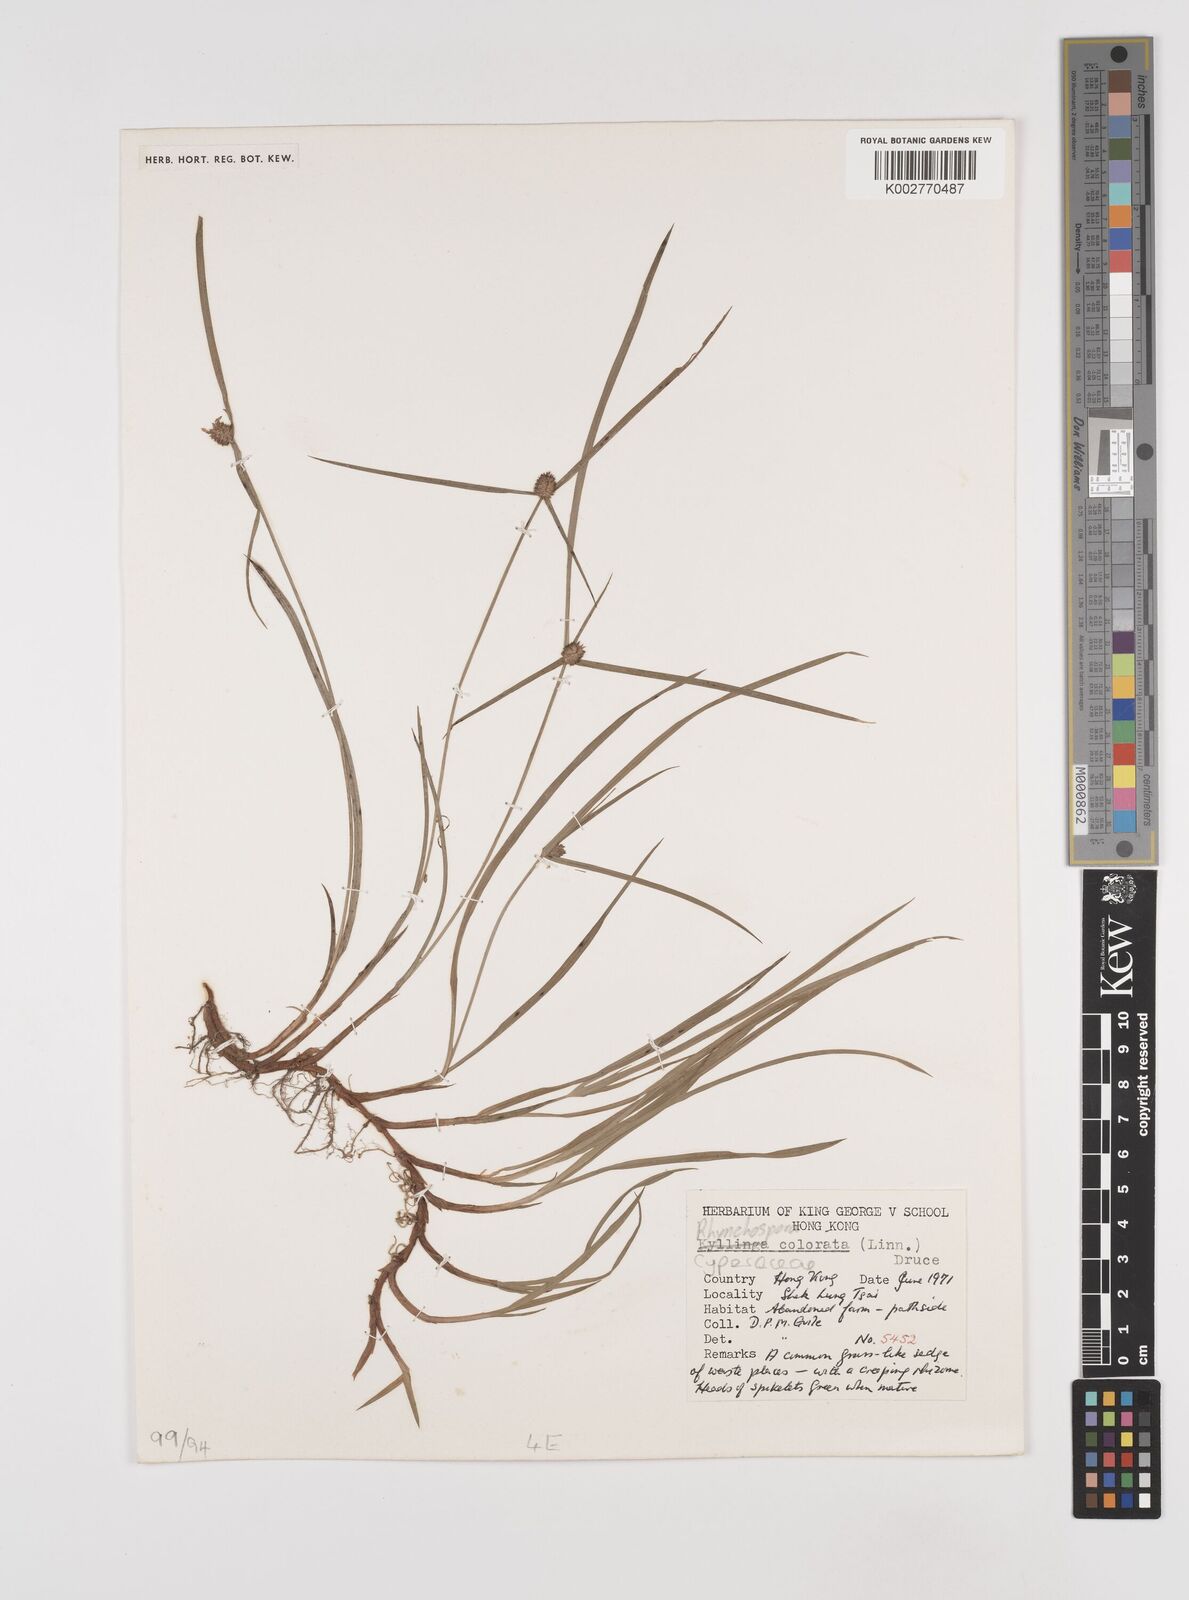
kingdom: Plantae
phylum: Tracheophyta
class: Liliopsida
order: Poales
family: Cyperaceae
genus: Rhynchospora
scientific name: Rhynchospora
